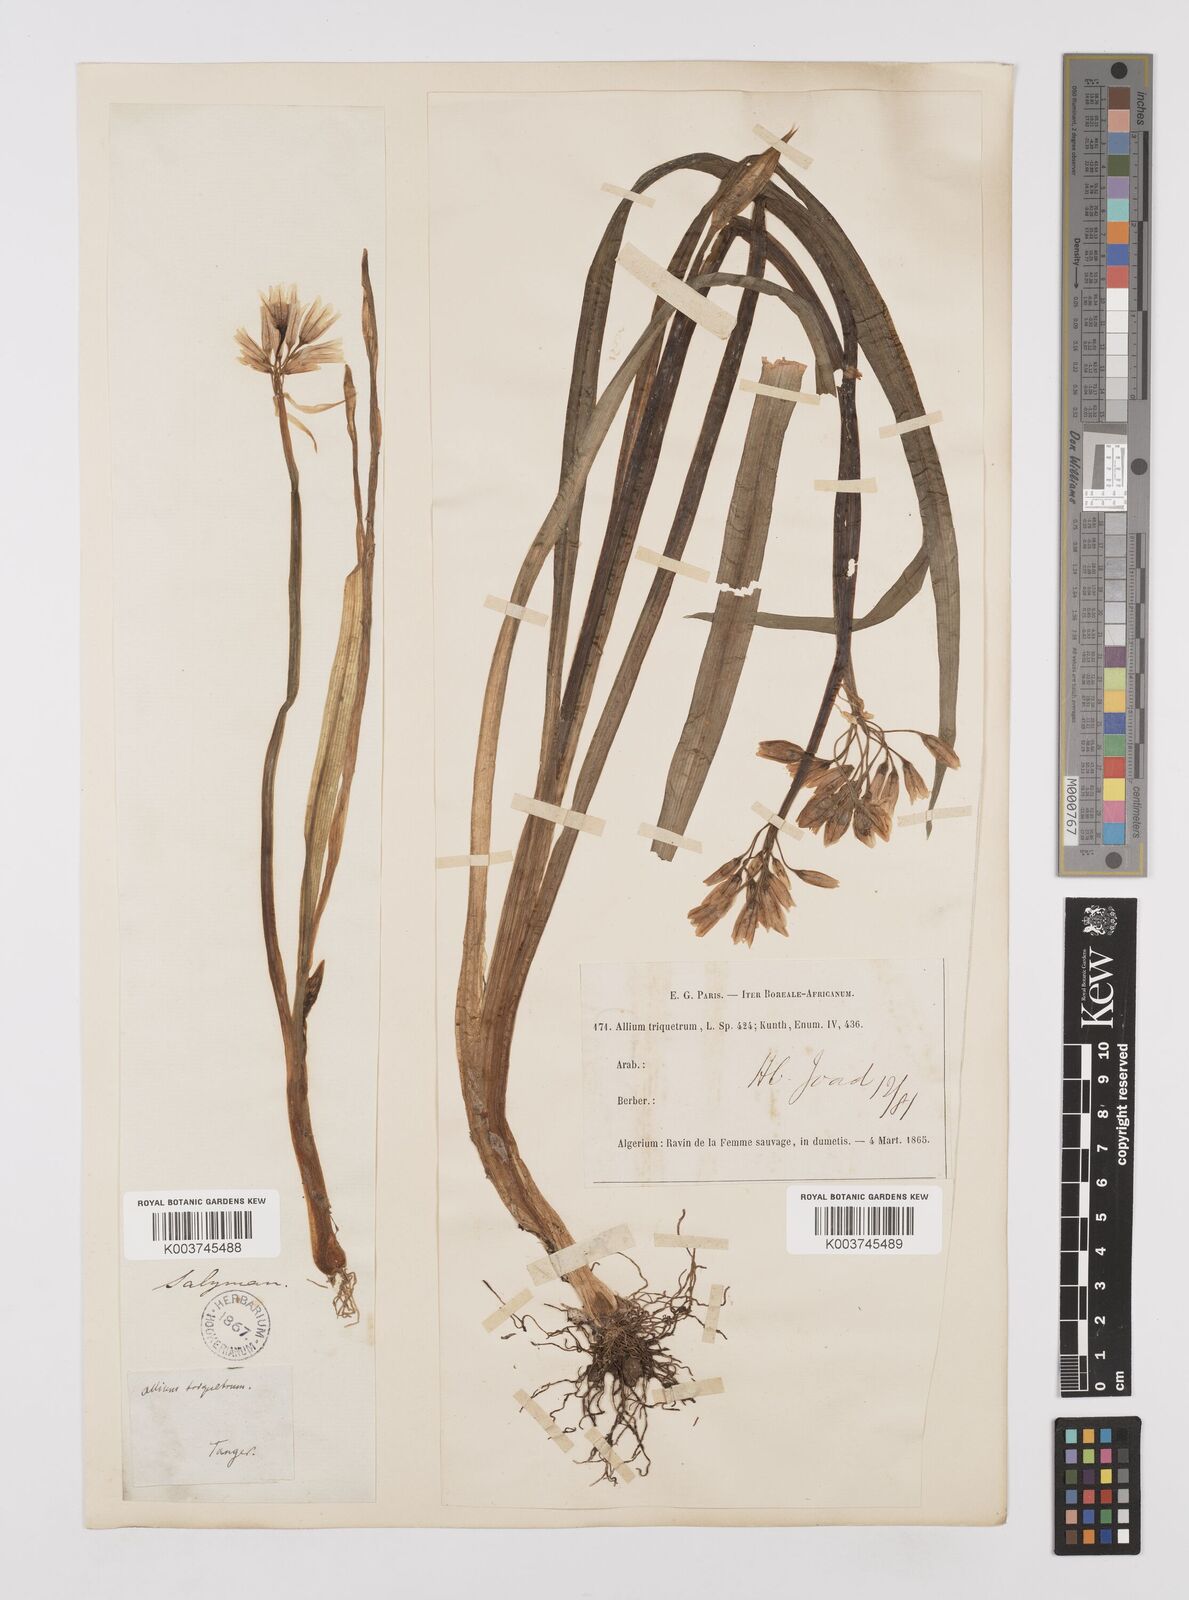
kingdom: Plantae
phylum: Tracheophyta
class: Liliopsida
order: Asparagales
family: Amaryllidaceae
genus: Allium
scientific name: Allium triquetrum
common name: Three-cornered garlic
